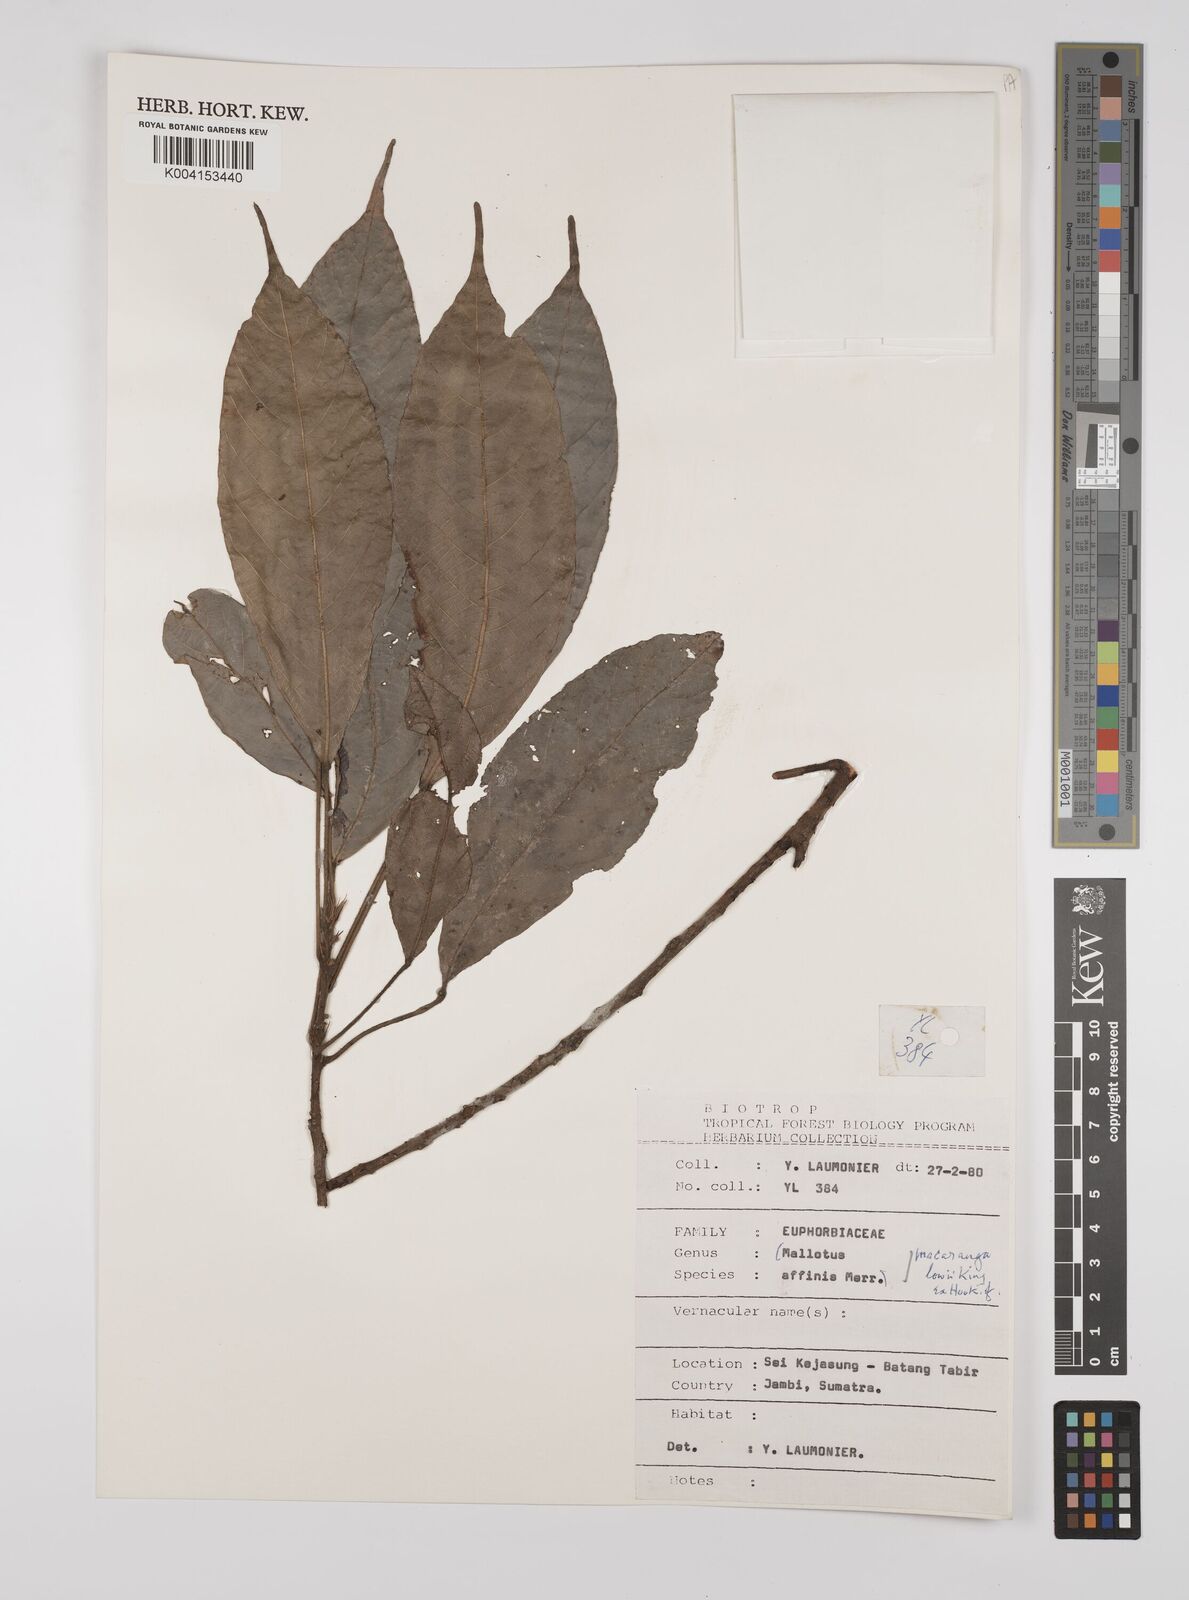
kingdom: Plantae
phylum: Tracheophyta
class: Magnoliopsida
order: Malpighiales
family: Euphorbiaceae
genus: Macaranga
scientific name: Macaranga lowii
